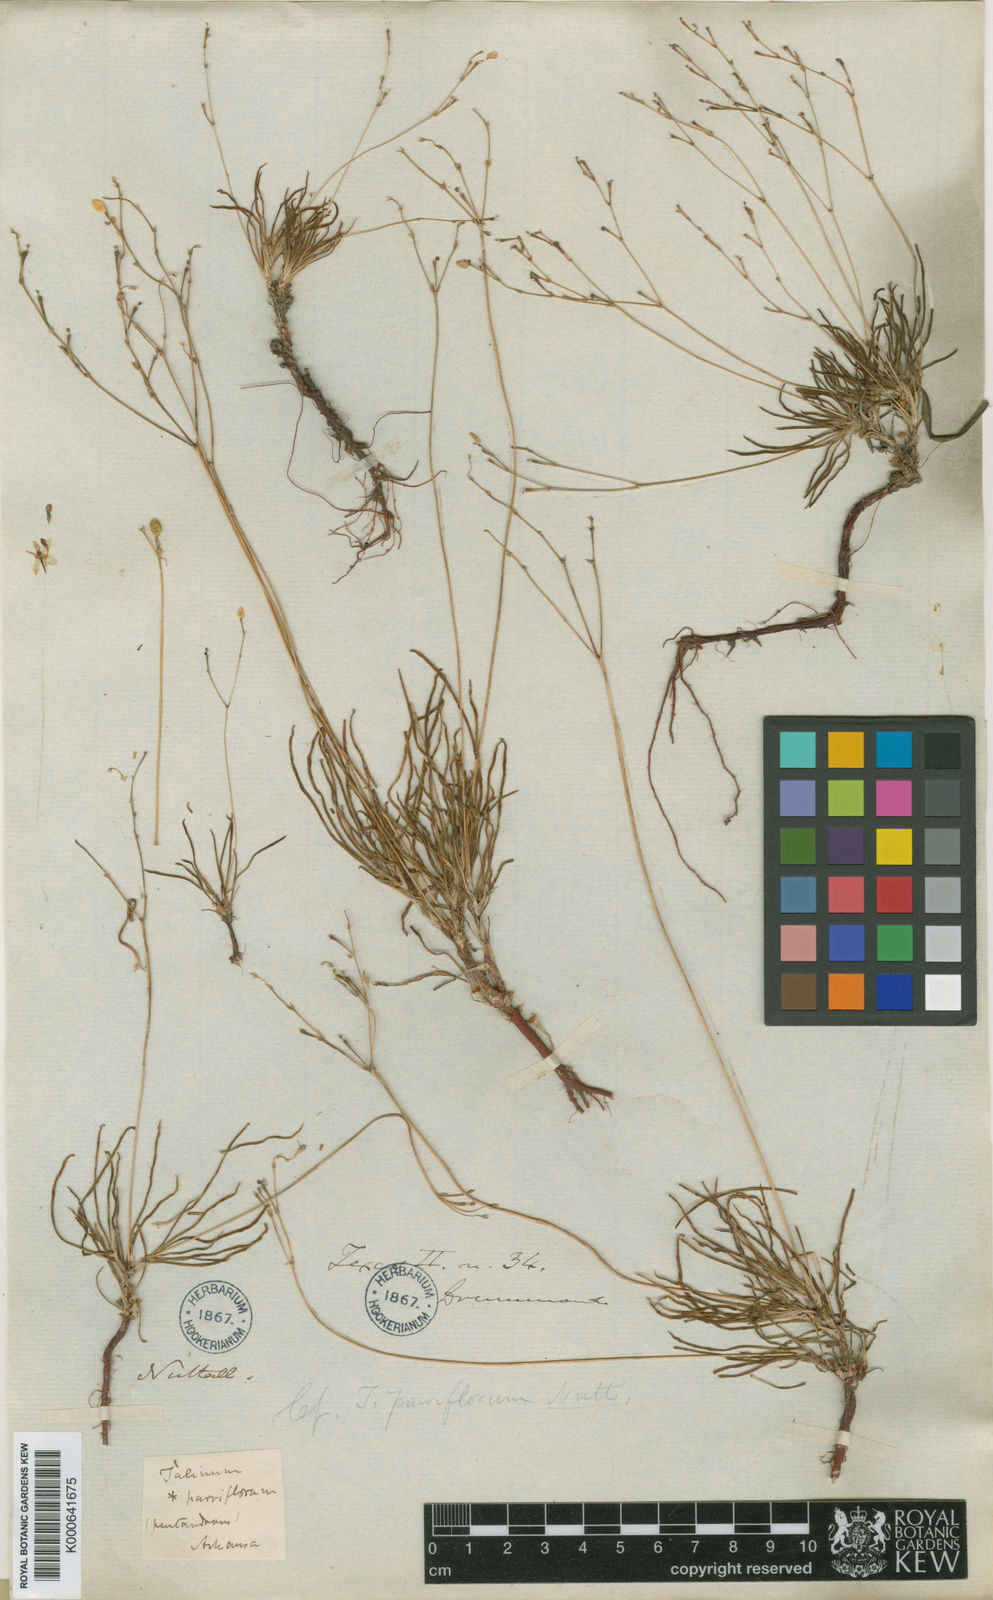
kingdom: Plantae
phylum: Tracheophyta
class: Magnoliopsida
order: Caryophyllales
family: Montiaceae
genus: Phemeranthus
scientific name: Phemeranthus parviflorus
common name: Sunbright
